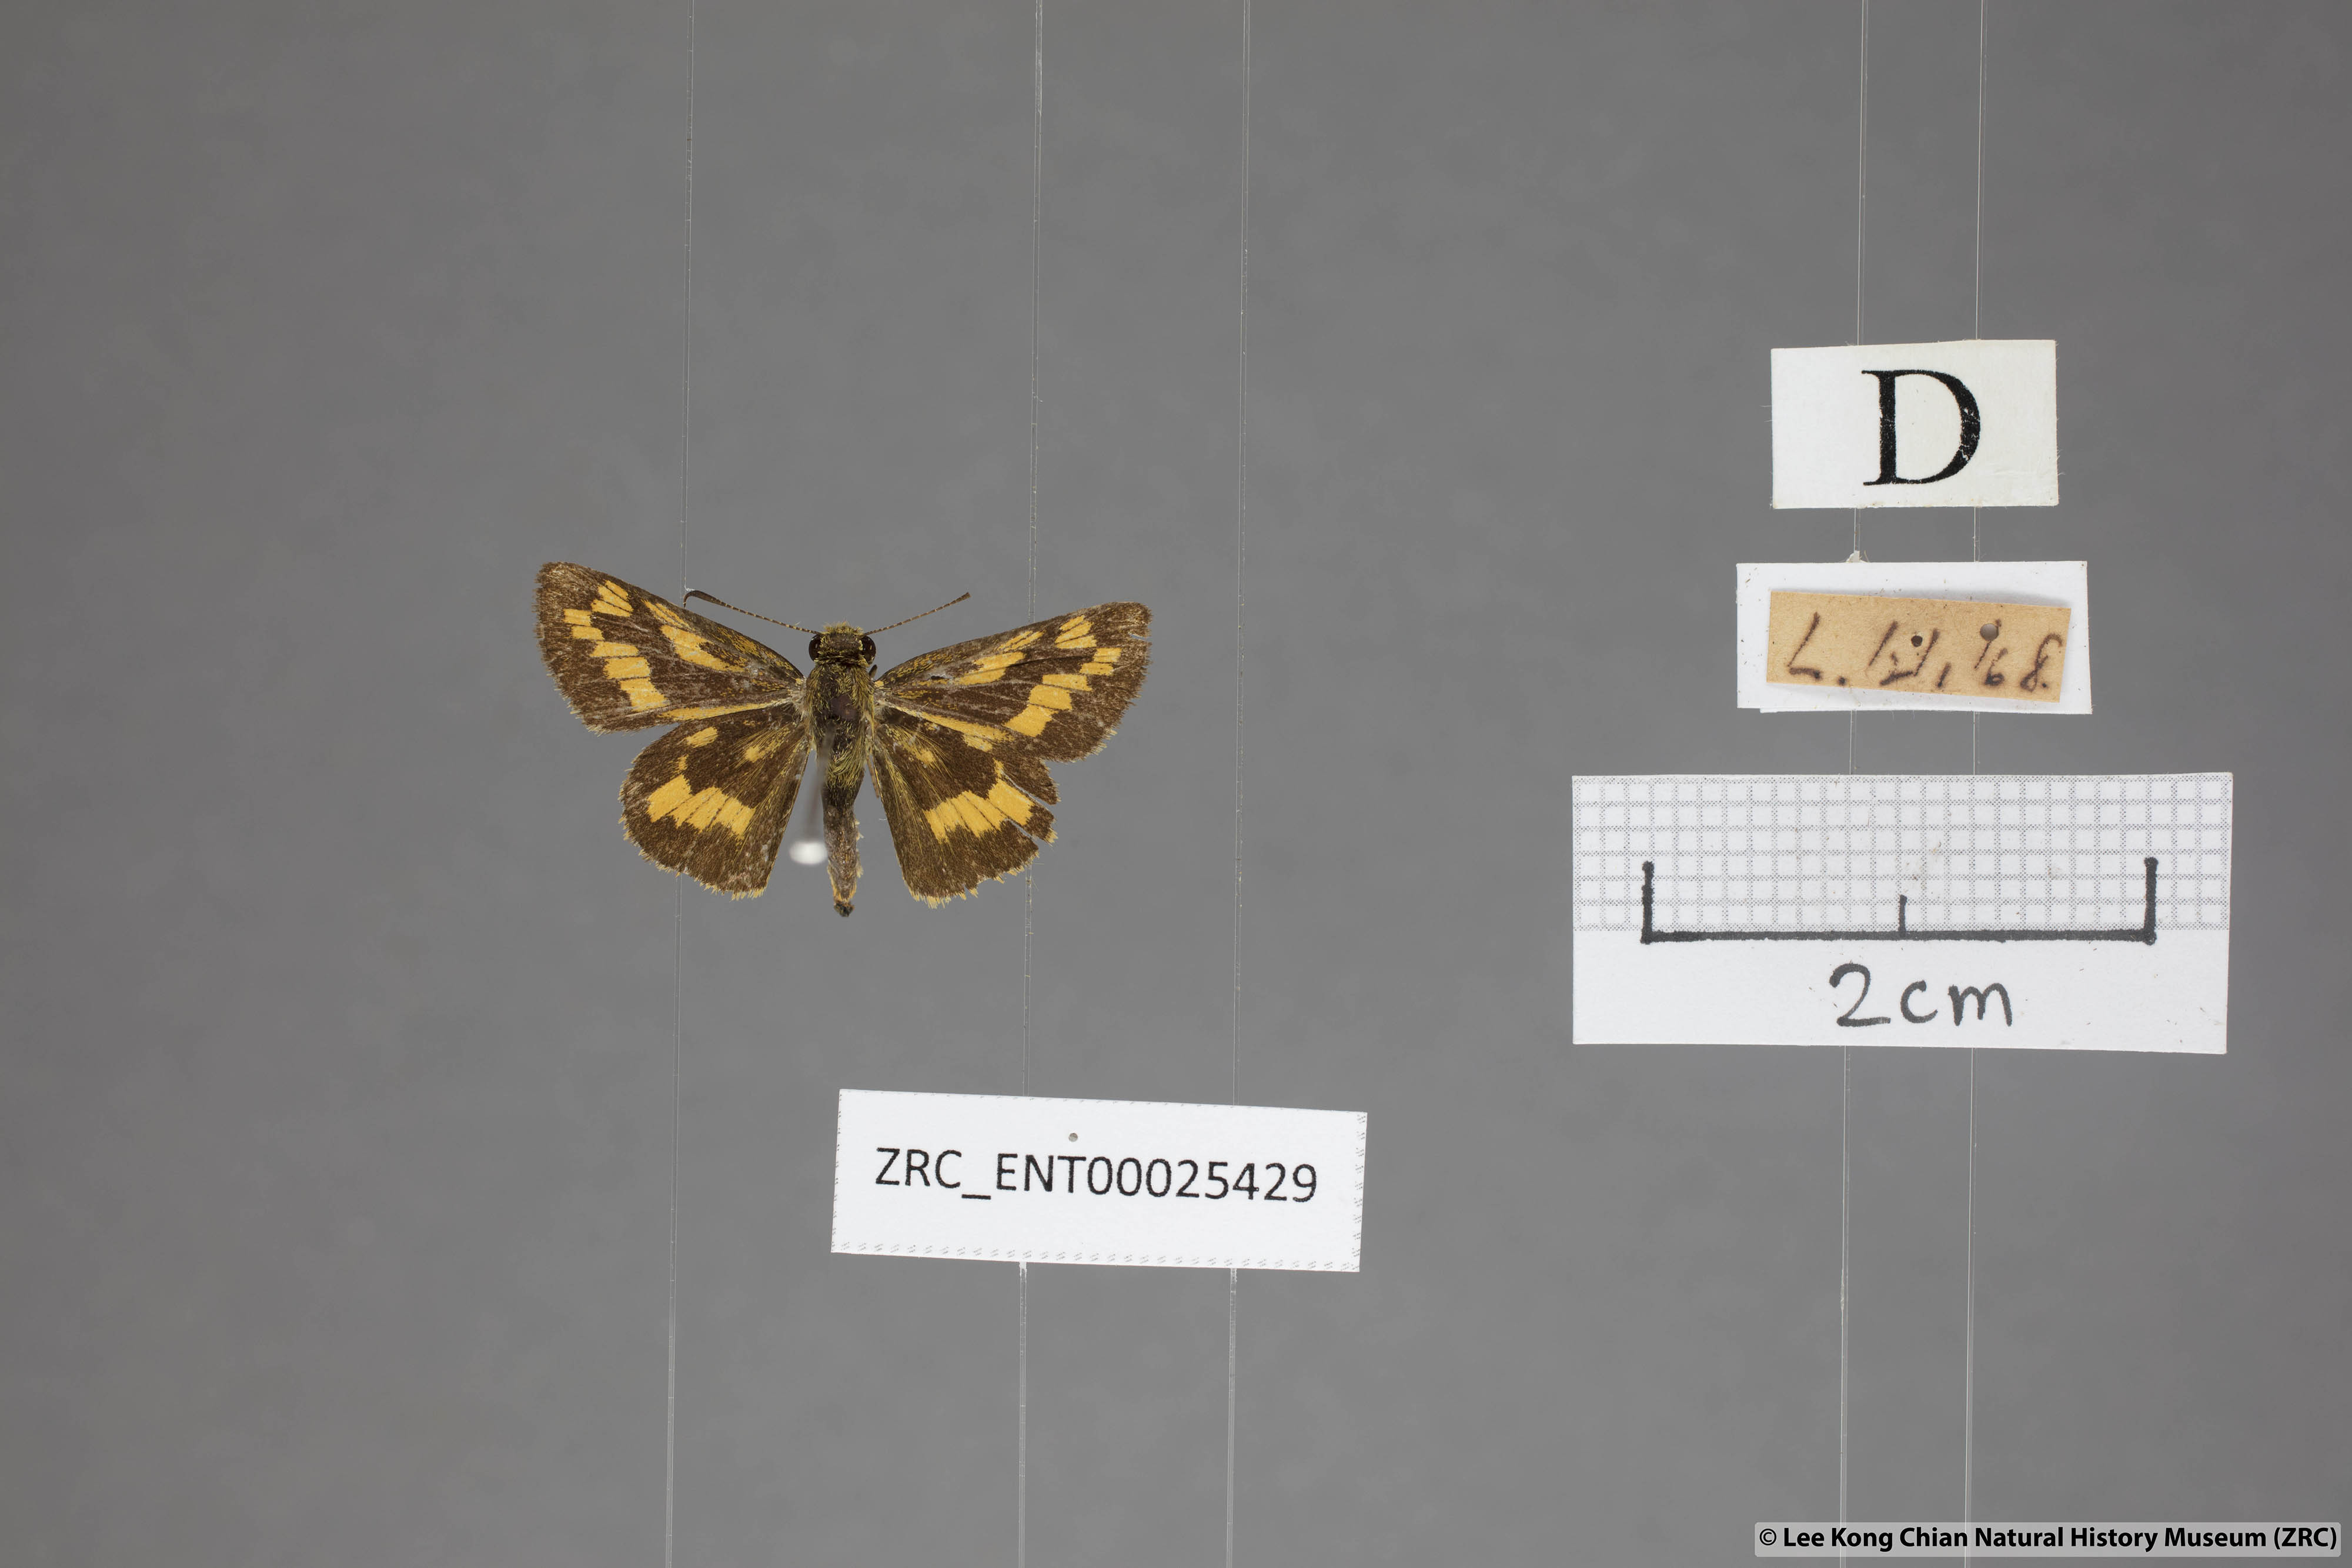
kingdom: Animalia
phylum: Arthropoda
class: Insecta
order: Lepidoptera
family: Hesperiidae
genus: Potanthus
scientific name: Potanthus omaha
